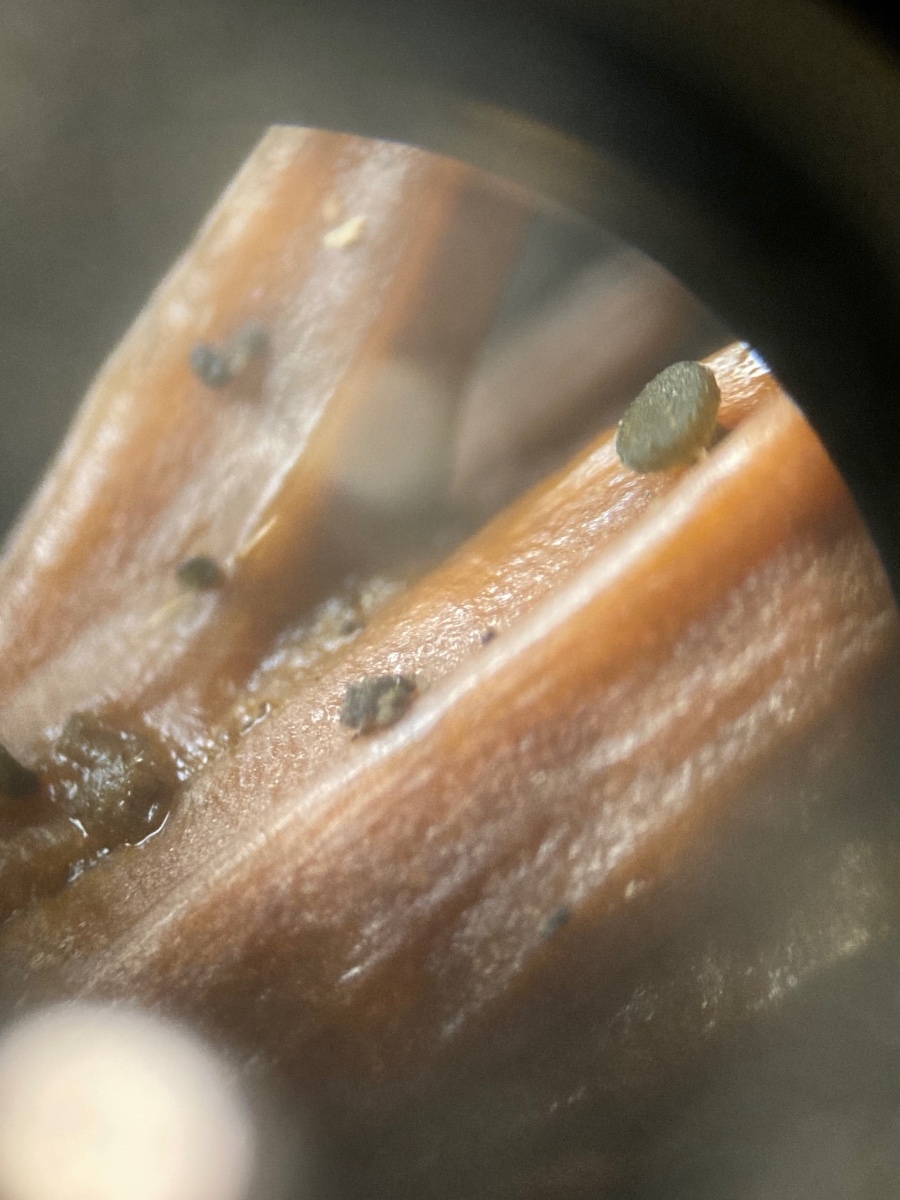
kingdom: Fungi
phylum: Ascomycota
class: Leotiomycetes
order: Helotiales
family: Gelatinodiscaceae
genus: Chloroscypha
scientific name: Chloroscypha seaveri
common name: kortstilket cypresskive
